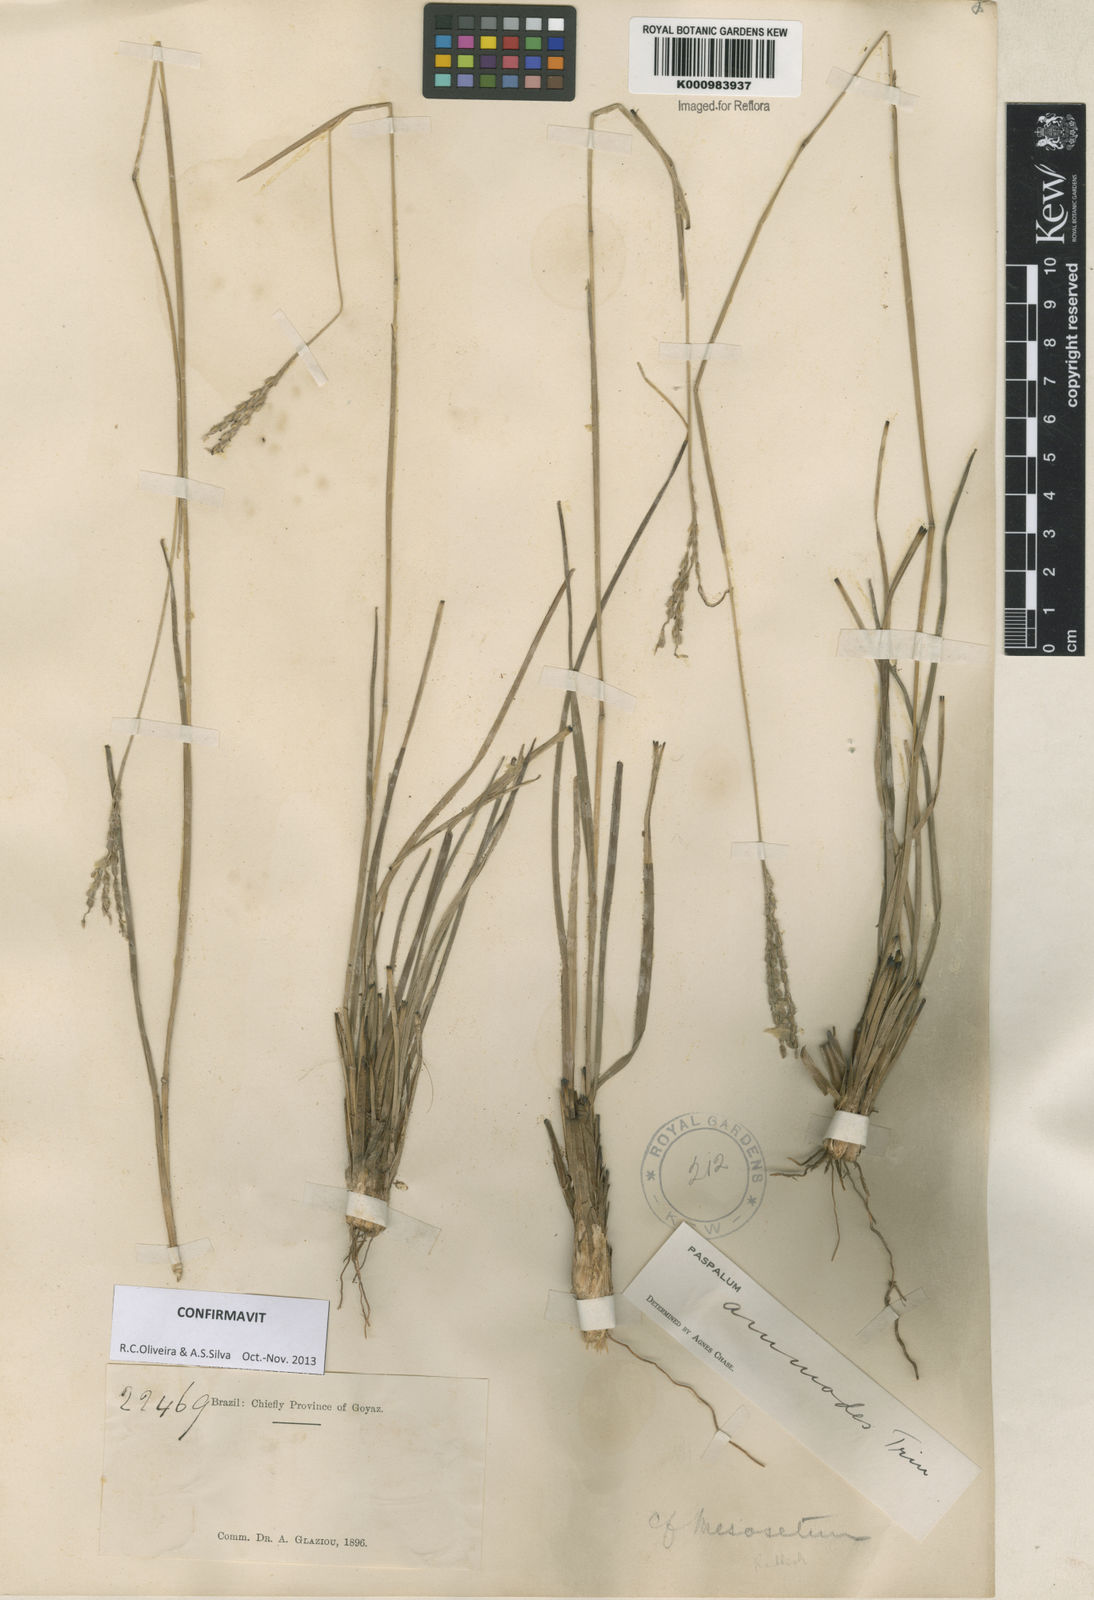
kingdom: Plantae
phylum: Tracheophyta
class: Liliopsida
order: Poales
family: Poaceae
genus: Paspalum
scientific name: Paspalum ammodes
